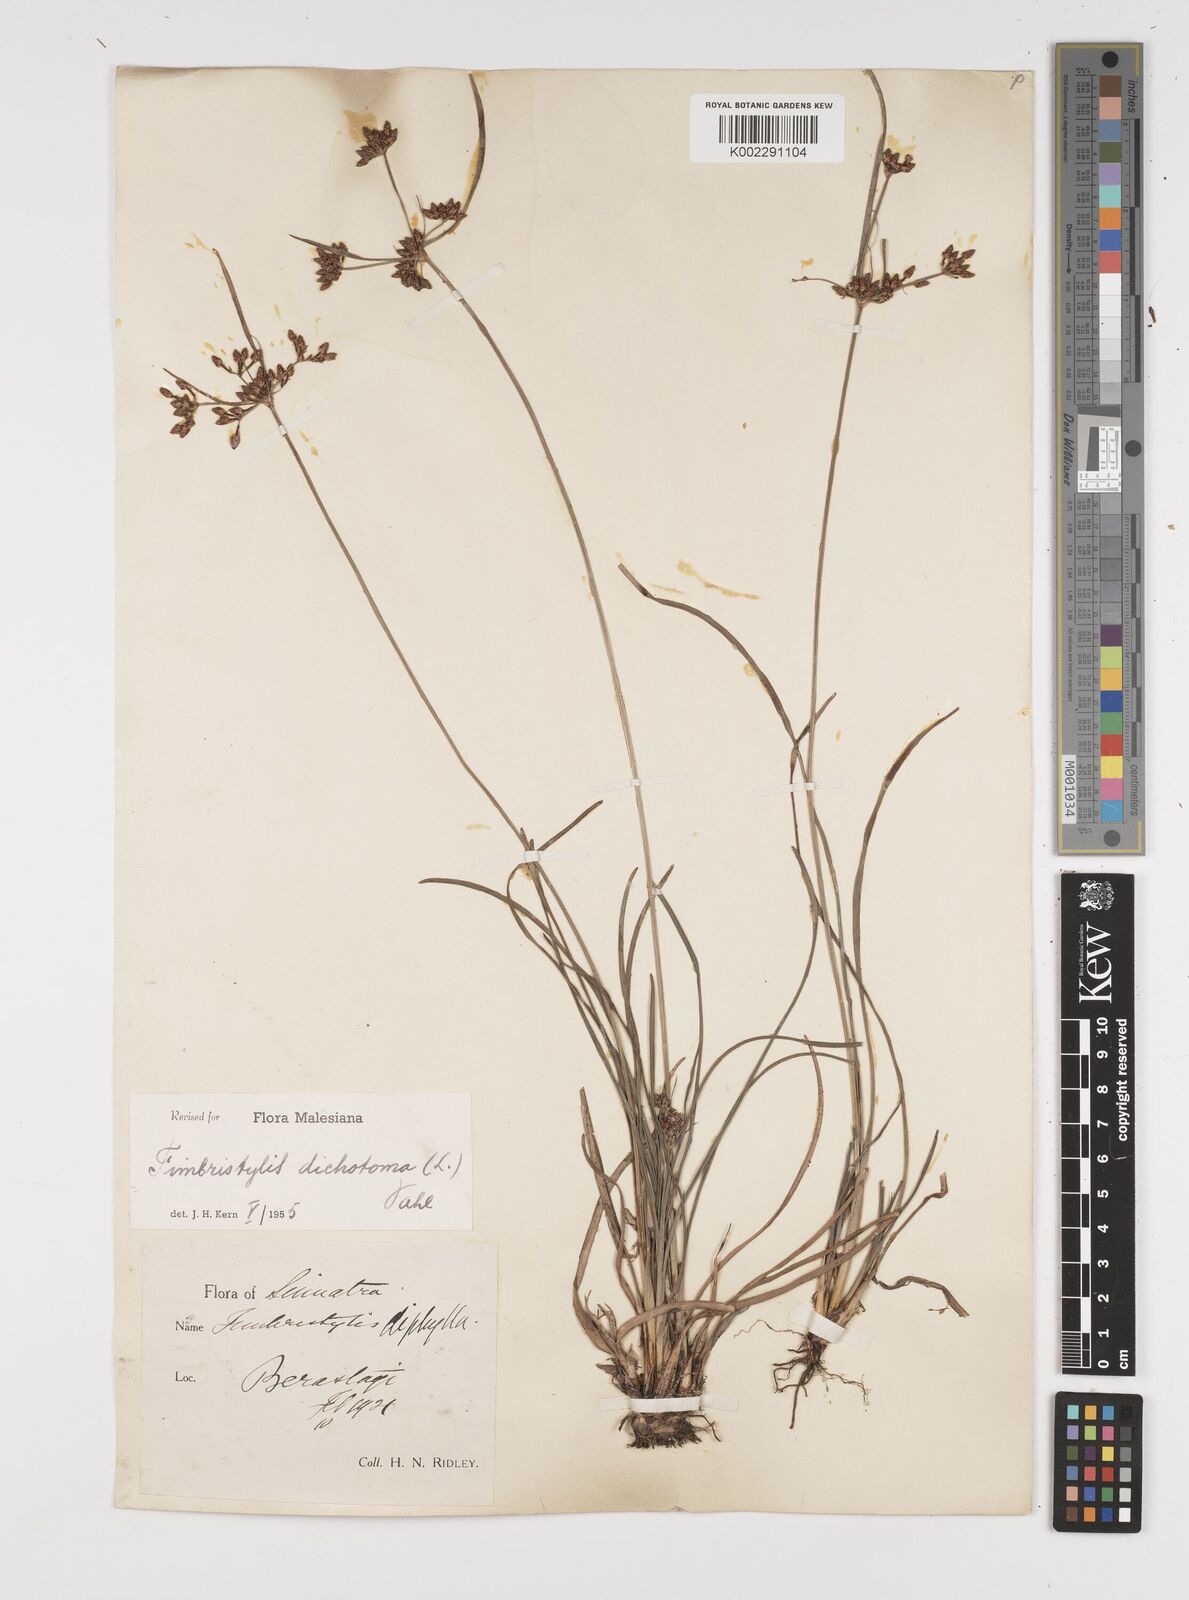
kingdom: Plantae
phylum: Tracheophyta
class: Liliopsida
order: Poales
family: Cyperaceae
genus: Fimbristylis
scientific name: Fimbristylis dichotoma
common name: Forked fimbry
